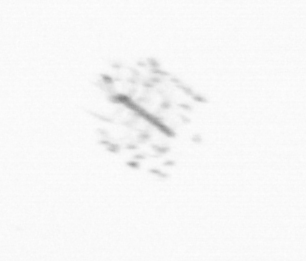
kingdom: Chromista
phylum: Ochrophyta
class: Bacillariophyceae
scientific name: Bacillariophyceae
